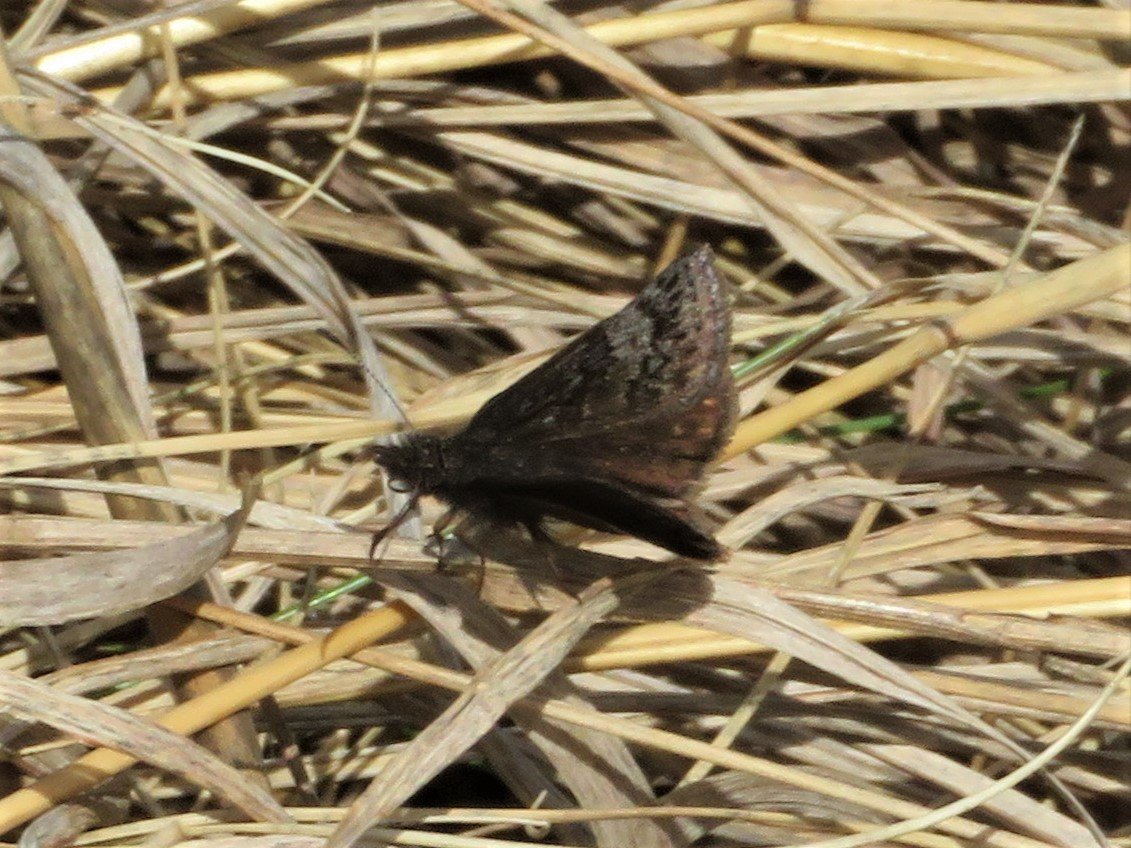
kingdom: Animalia
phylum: Arthropoda
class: Insecta
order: Lepidoptera
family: Hesperiidae
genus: Erynnis
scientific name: Erynnis icelus
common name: Dreamy Duskywing
